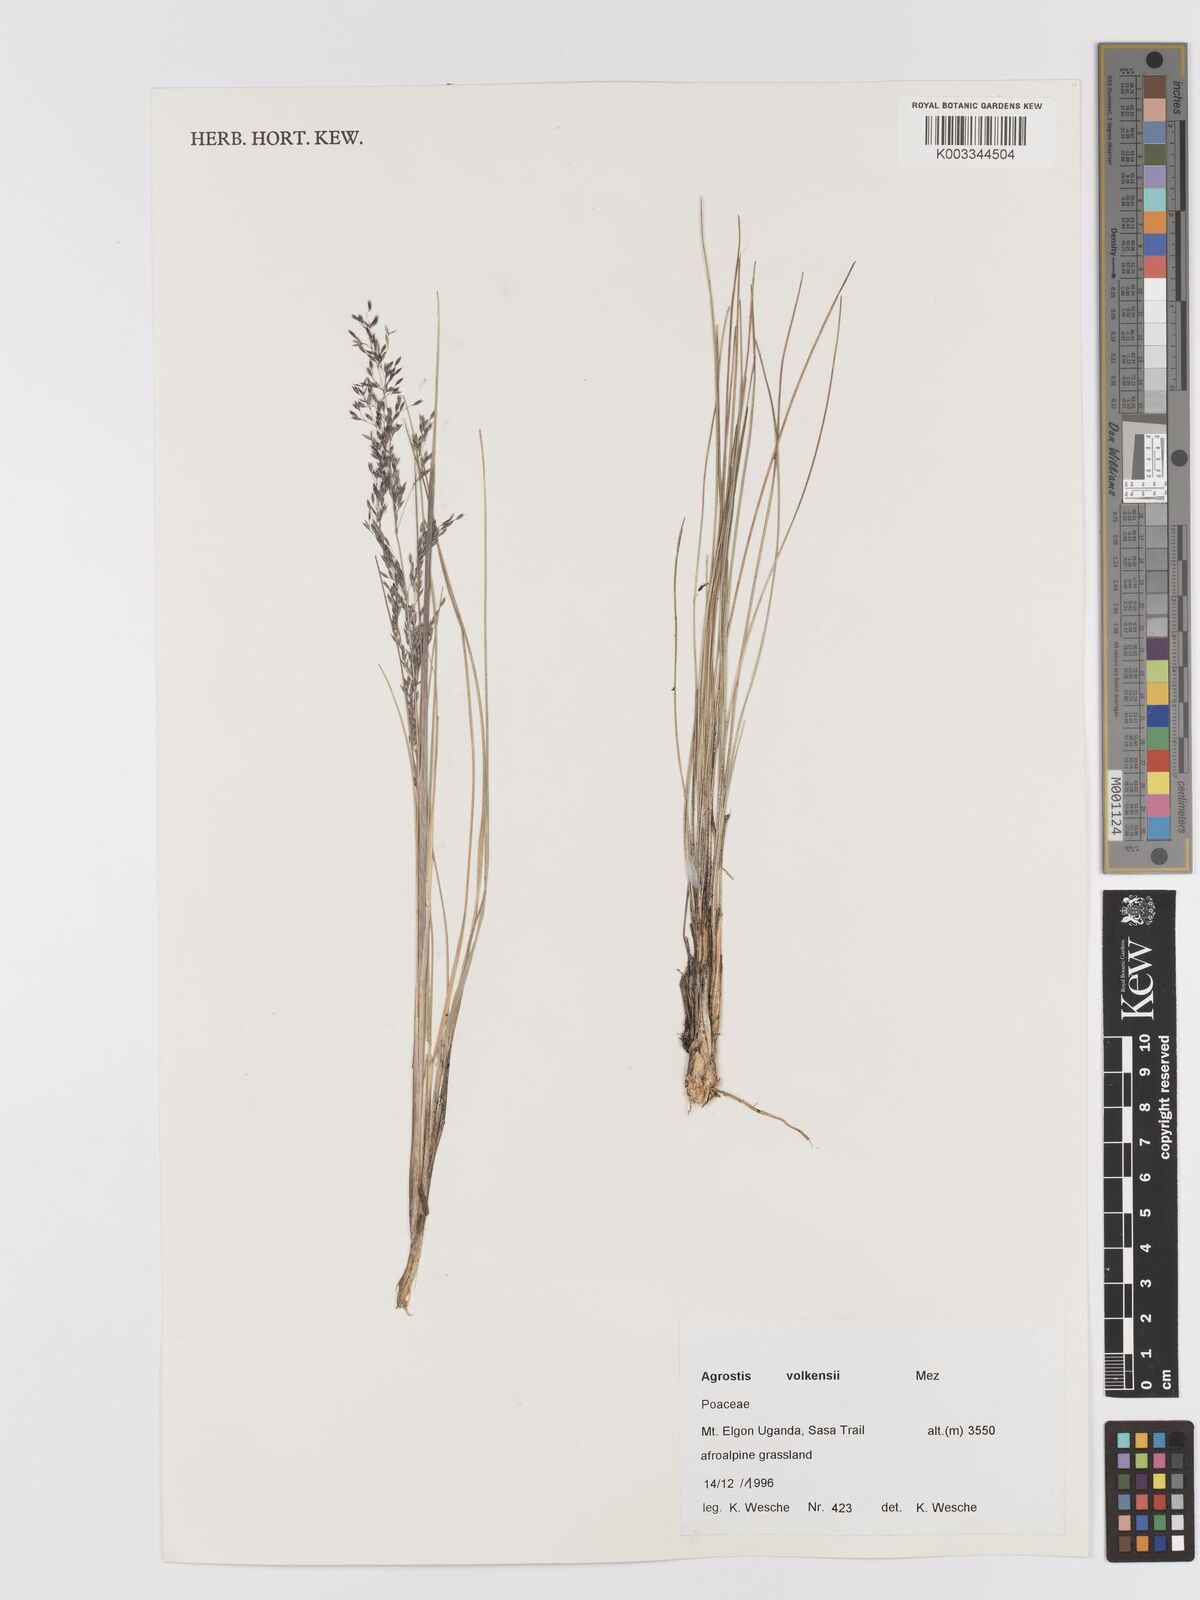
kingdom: Plantae
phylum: Tracheophyta
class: Liliopsida
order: Poales
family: Poaceae
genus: Agrostis
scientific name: Agrostis volkensii
